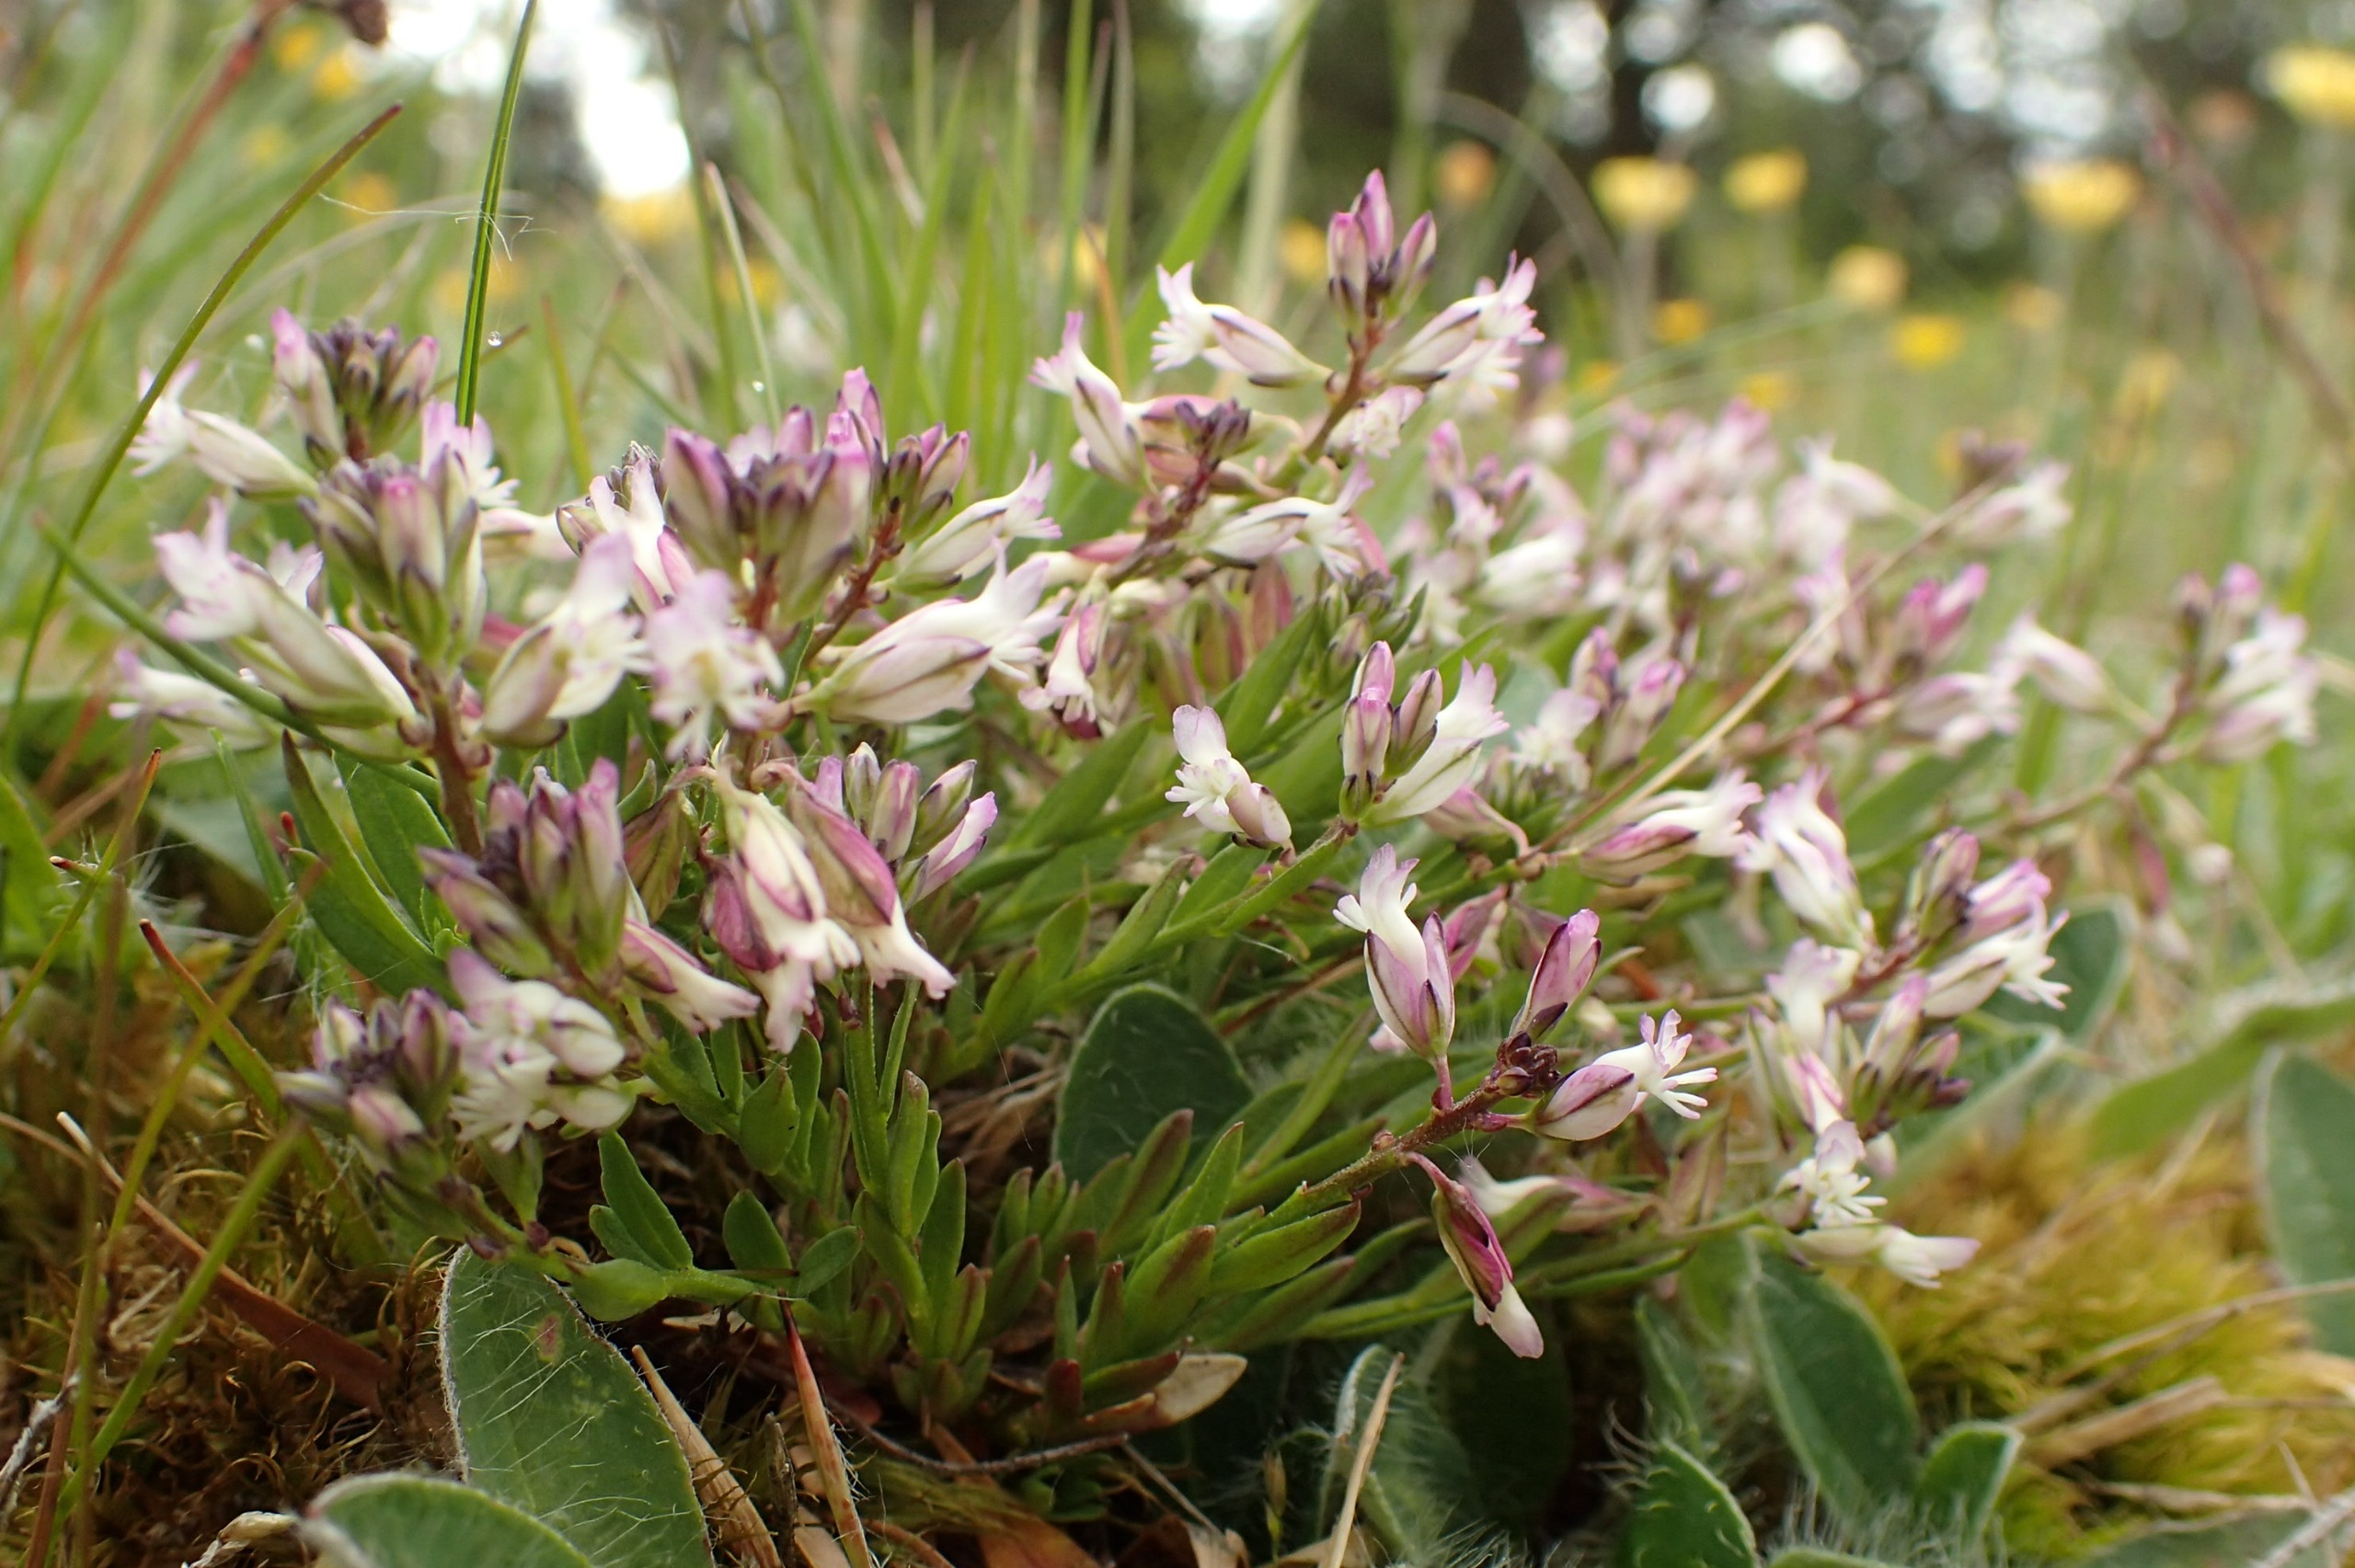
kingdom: Plantae
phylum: Tracheophyta
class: Magnoliopsida
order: Fabales
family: Polygalaceae
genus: Polygala
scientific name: Polygala vulgaris
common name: Almindelig mælkeurt
